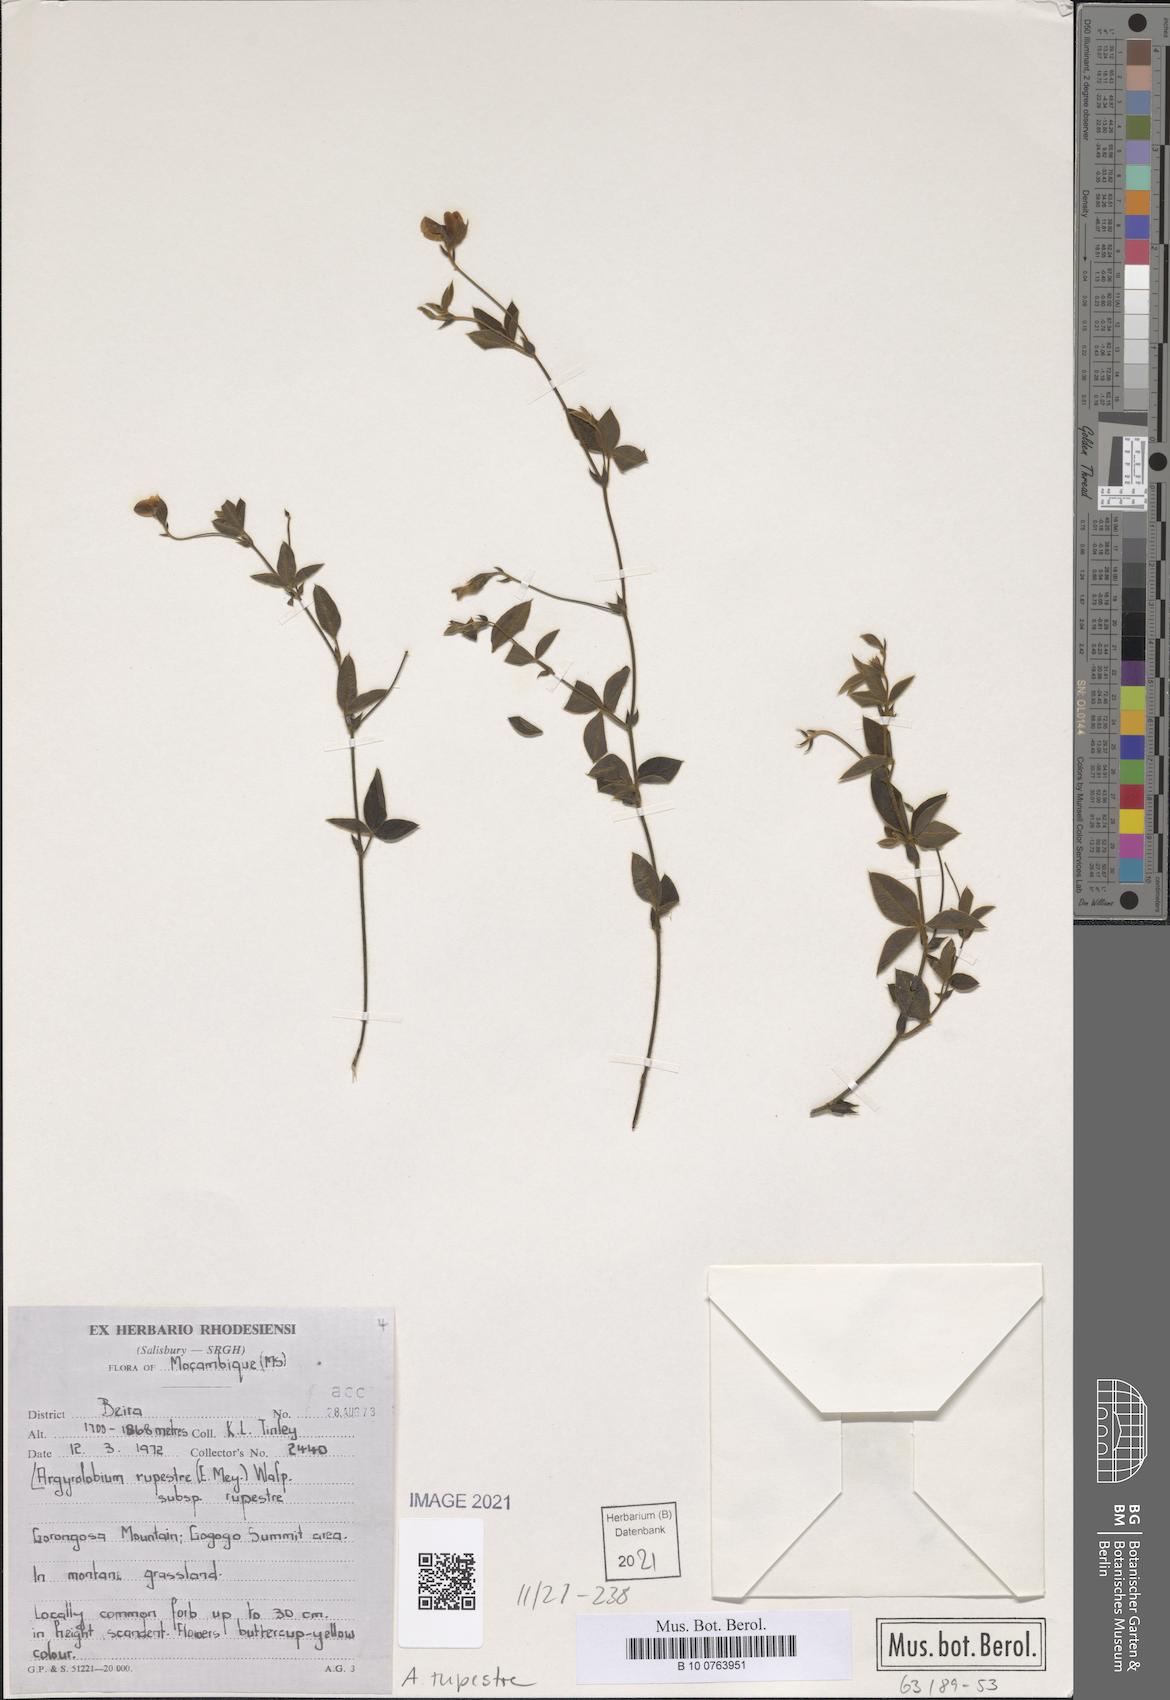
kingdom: Plantae
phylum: Tracheophyta
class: Magnoliopsida
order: Fabales
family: Fabaceae
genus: Argyrolobium
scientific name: Argyrolobium rupestre
